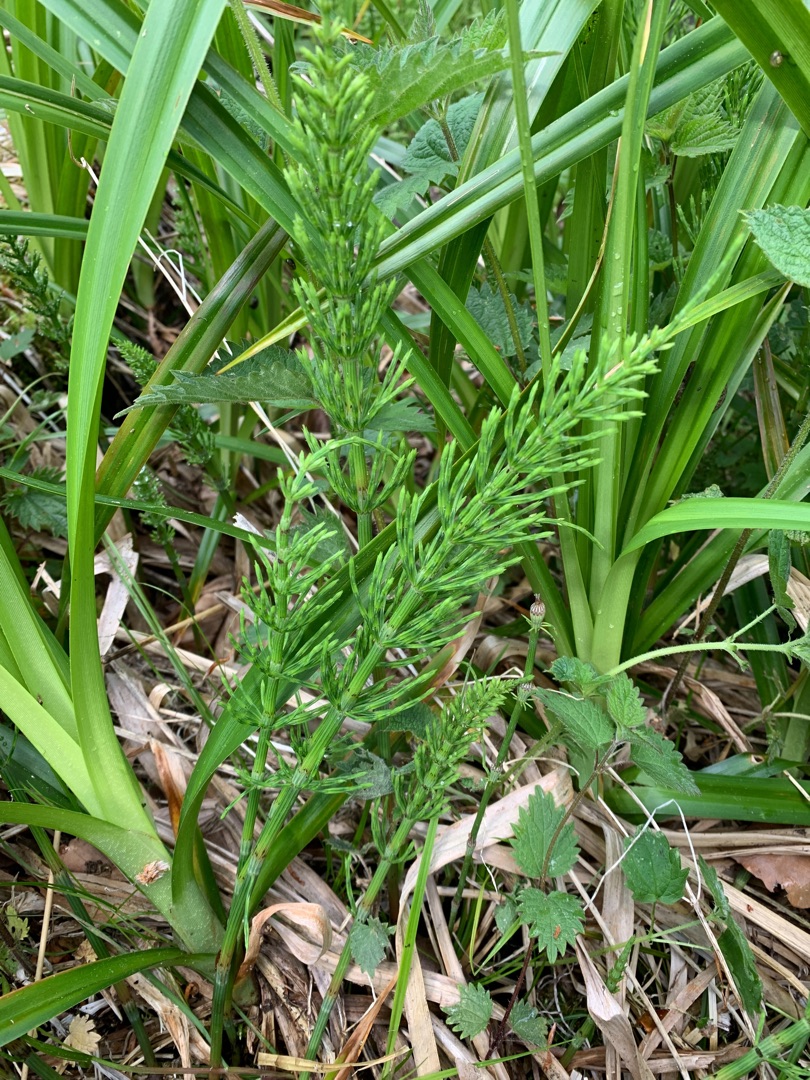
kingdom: Plantae
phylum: Tracheophyta
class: Polypodiopsida
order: Equisetales
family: Equisetaceae
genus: Equisetum
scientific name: Equisetum arvense
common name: Ager-padderok
